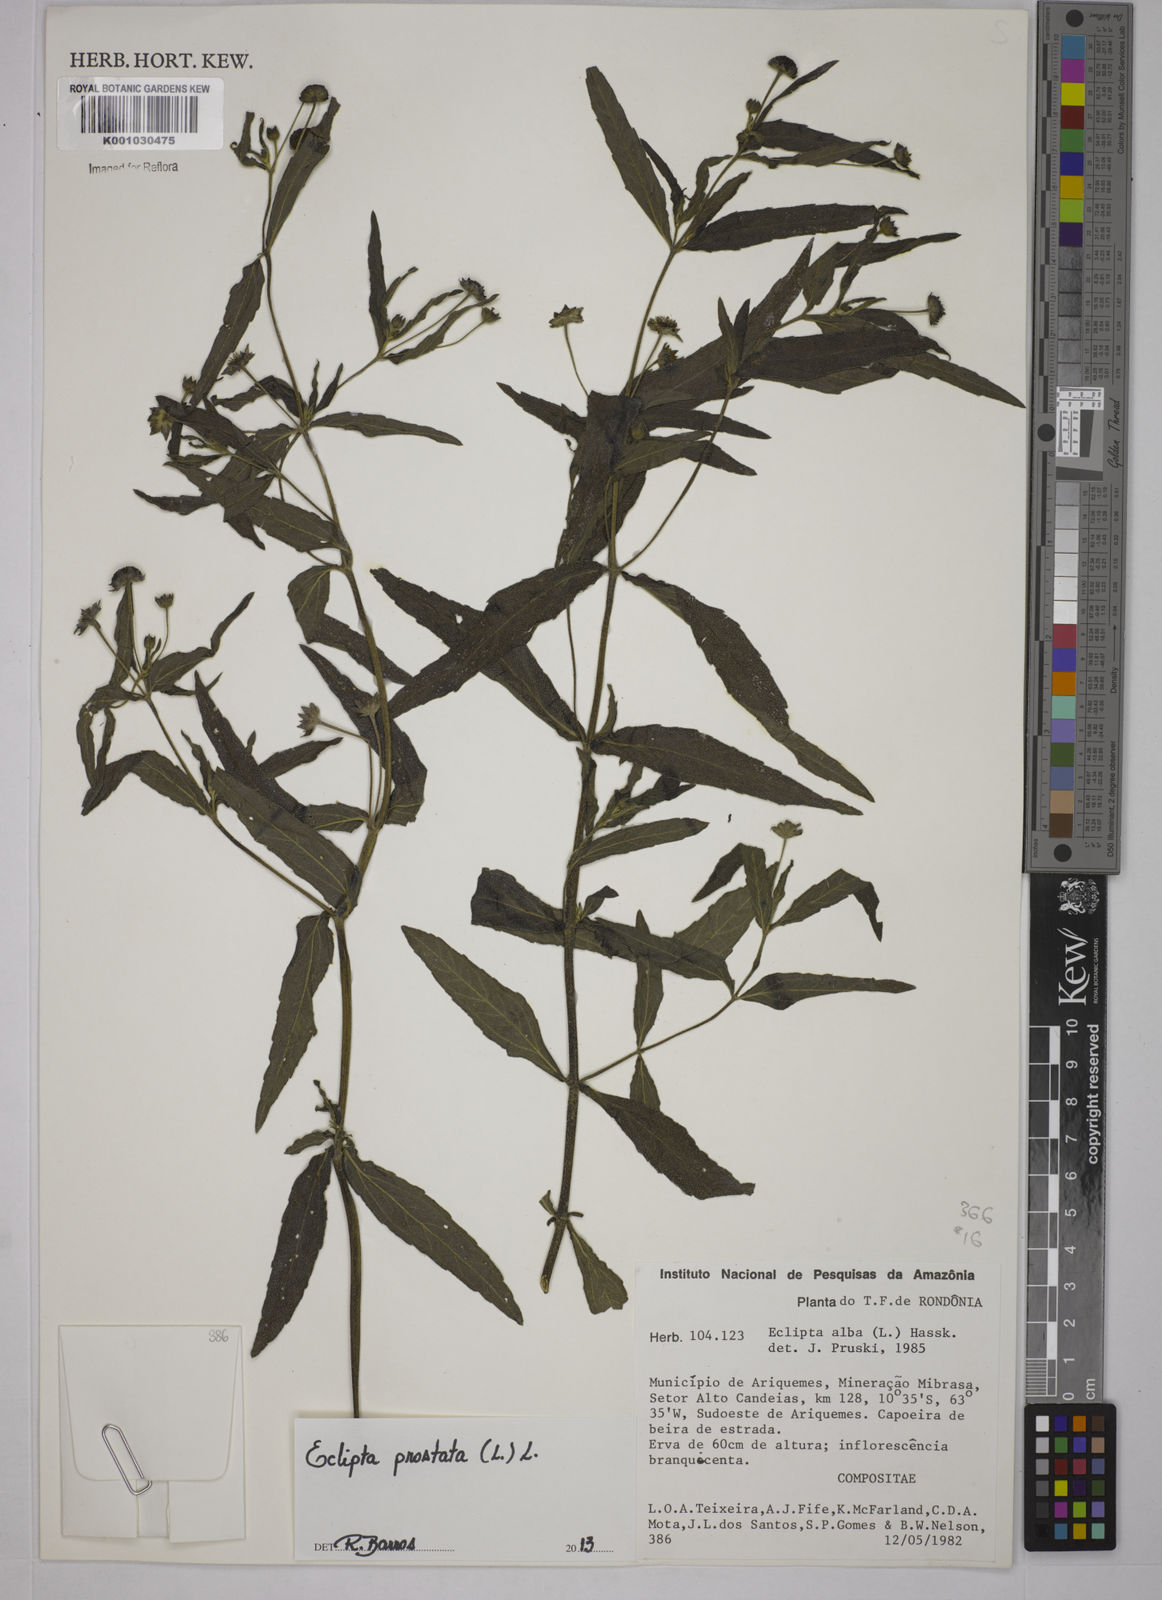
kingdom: Plantae
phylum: Tracheophyta
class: Magnoliopsida
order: Asterales
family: Asteraceae
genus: Eclipta
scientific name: Eclipta prostrata
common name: False daisy
